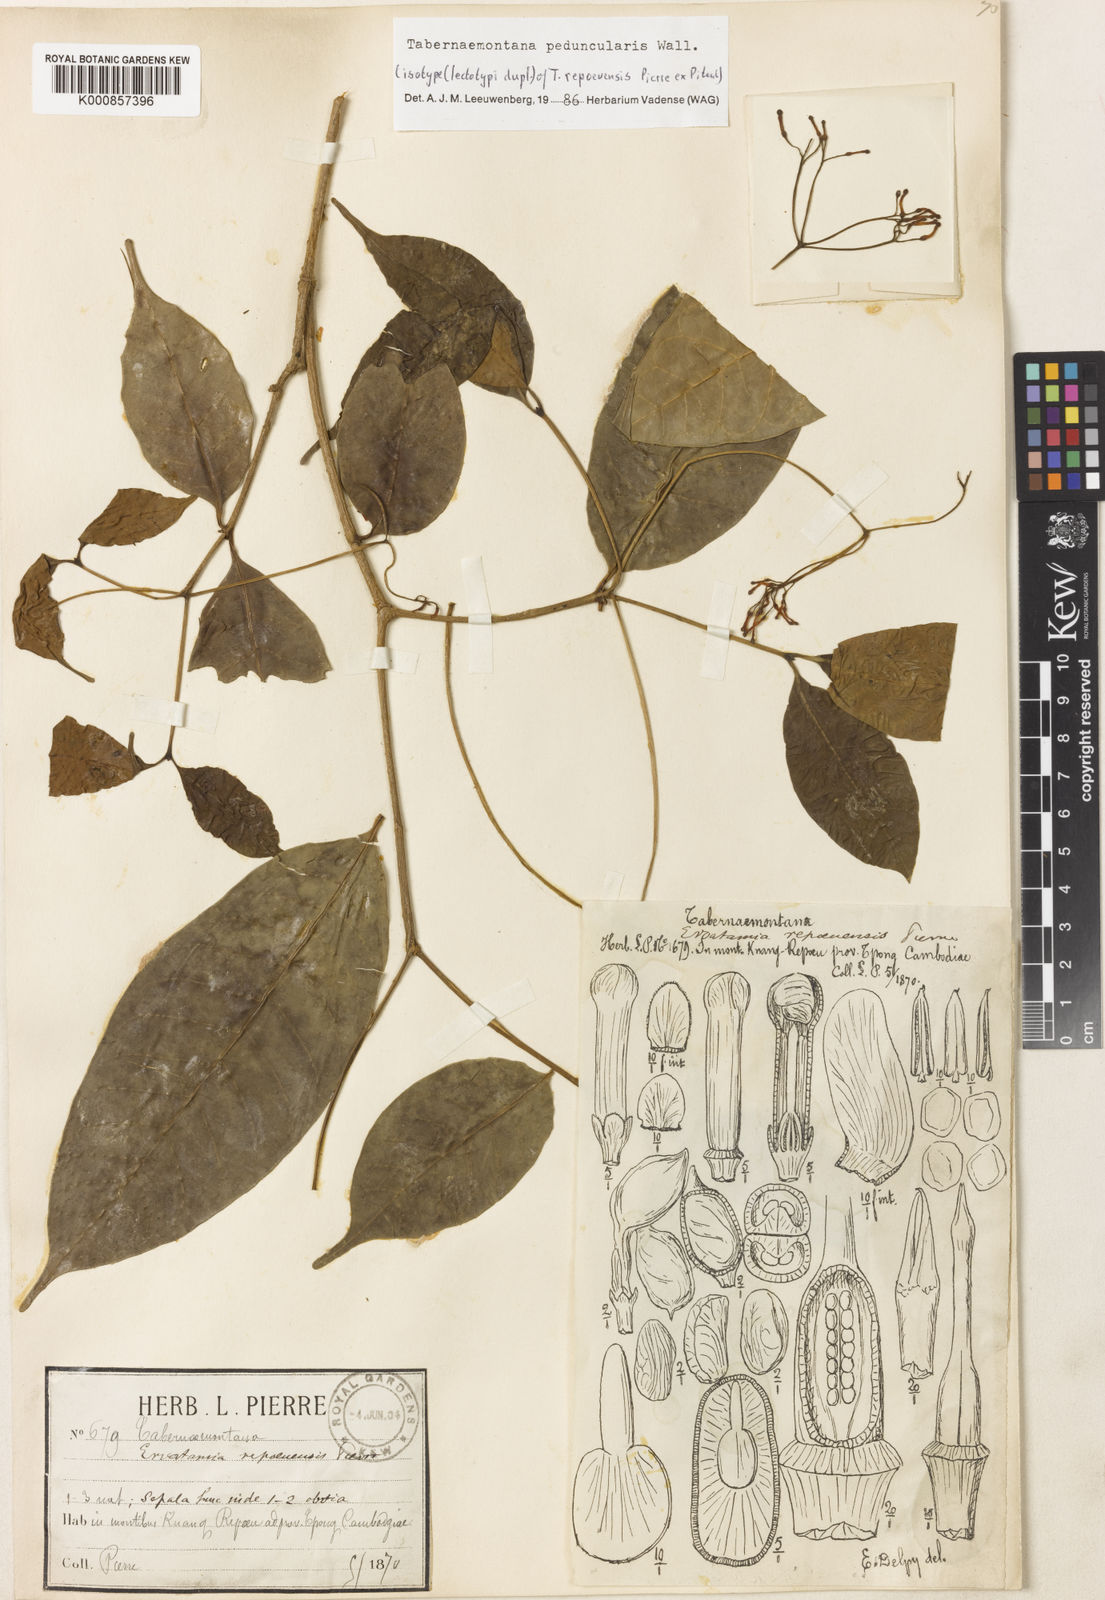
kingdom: Plantae
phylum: Tracheophyta
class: Magnoliopsida
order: Gentianales
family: Apocynaceae
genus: Tabernaemontana
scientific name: Tabernaemontana peduncularis
